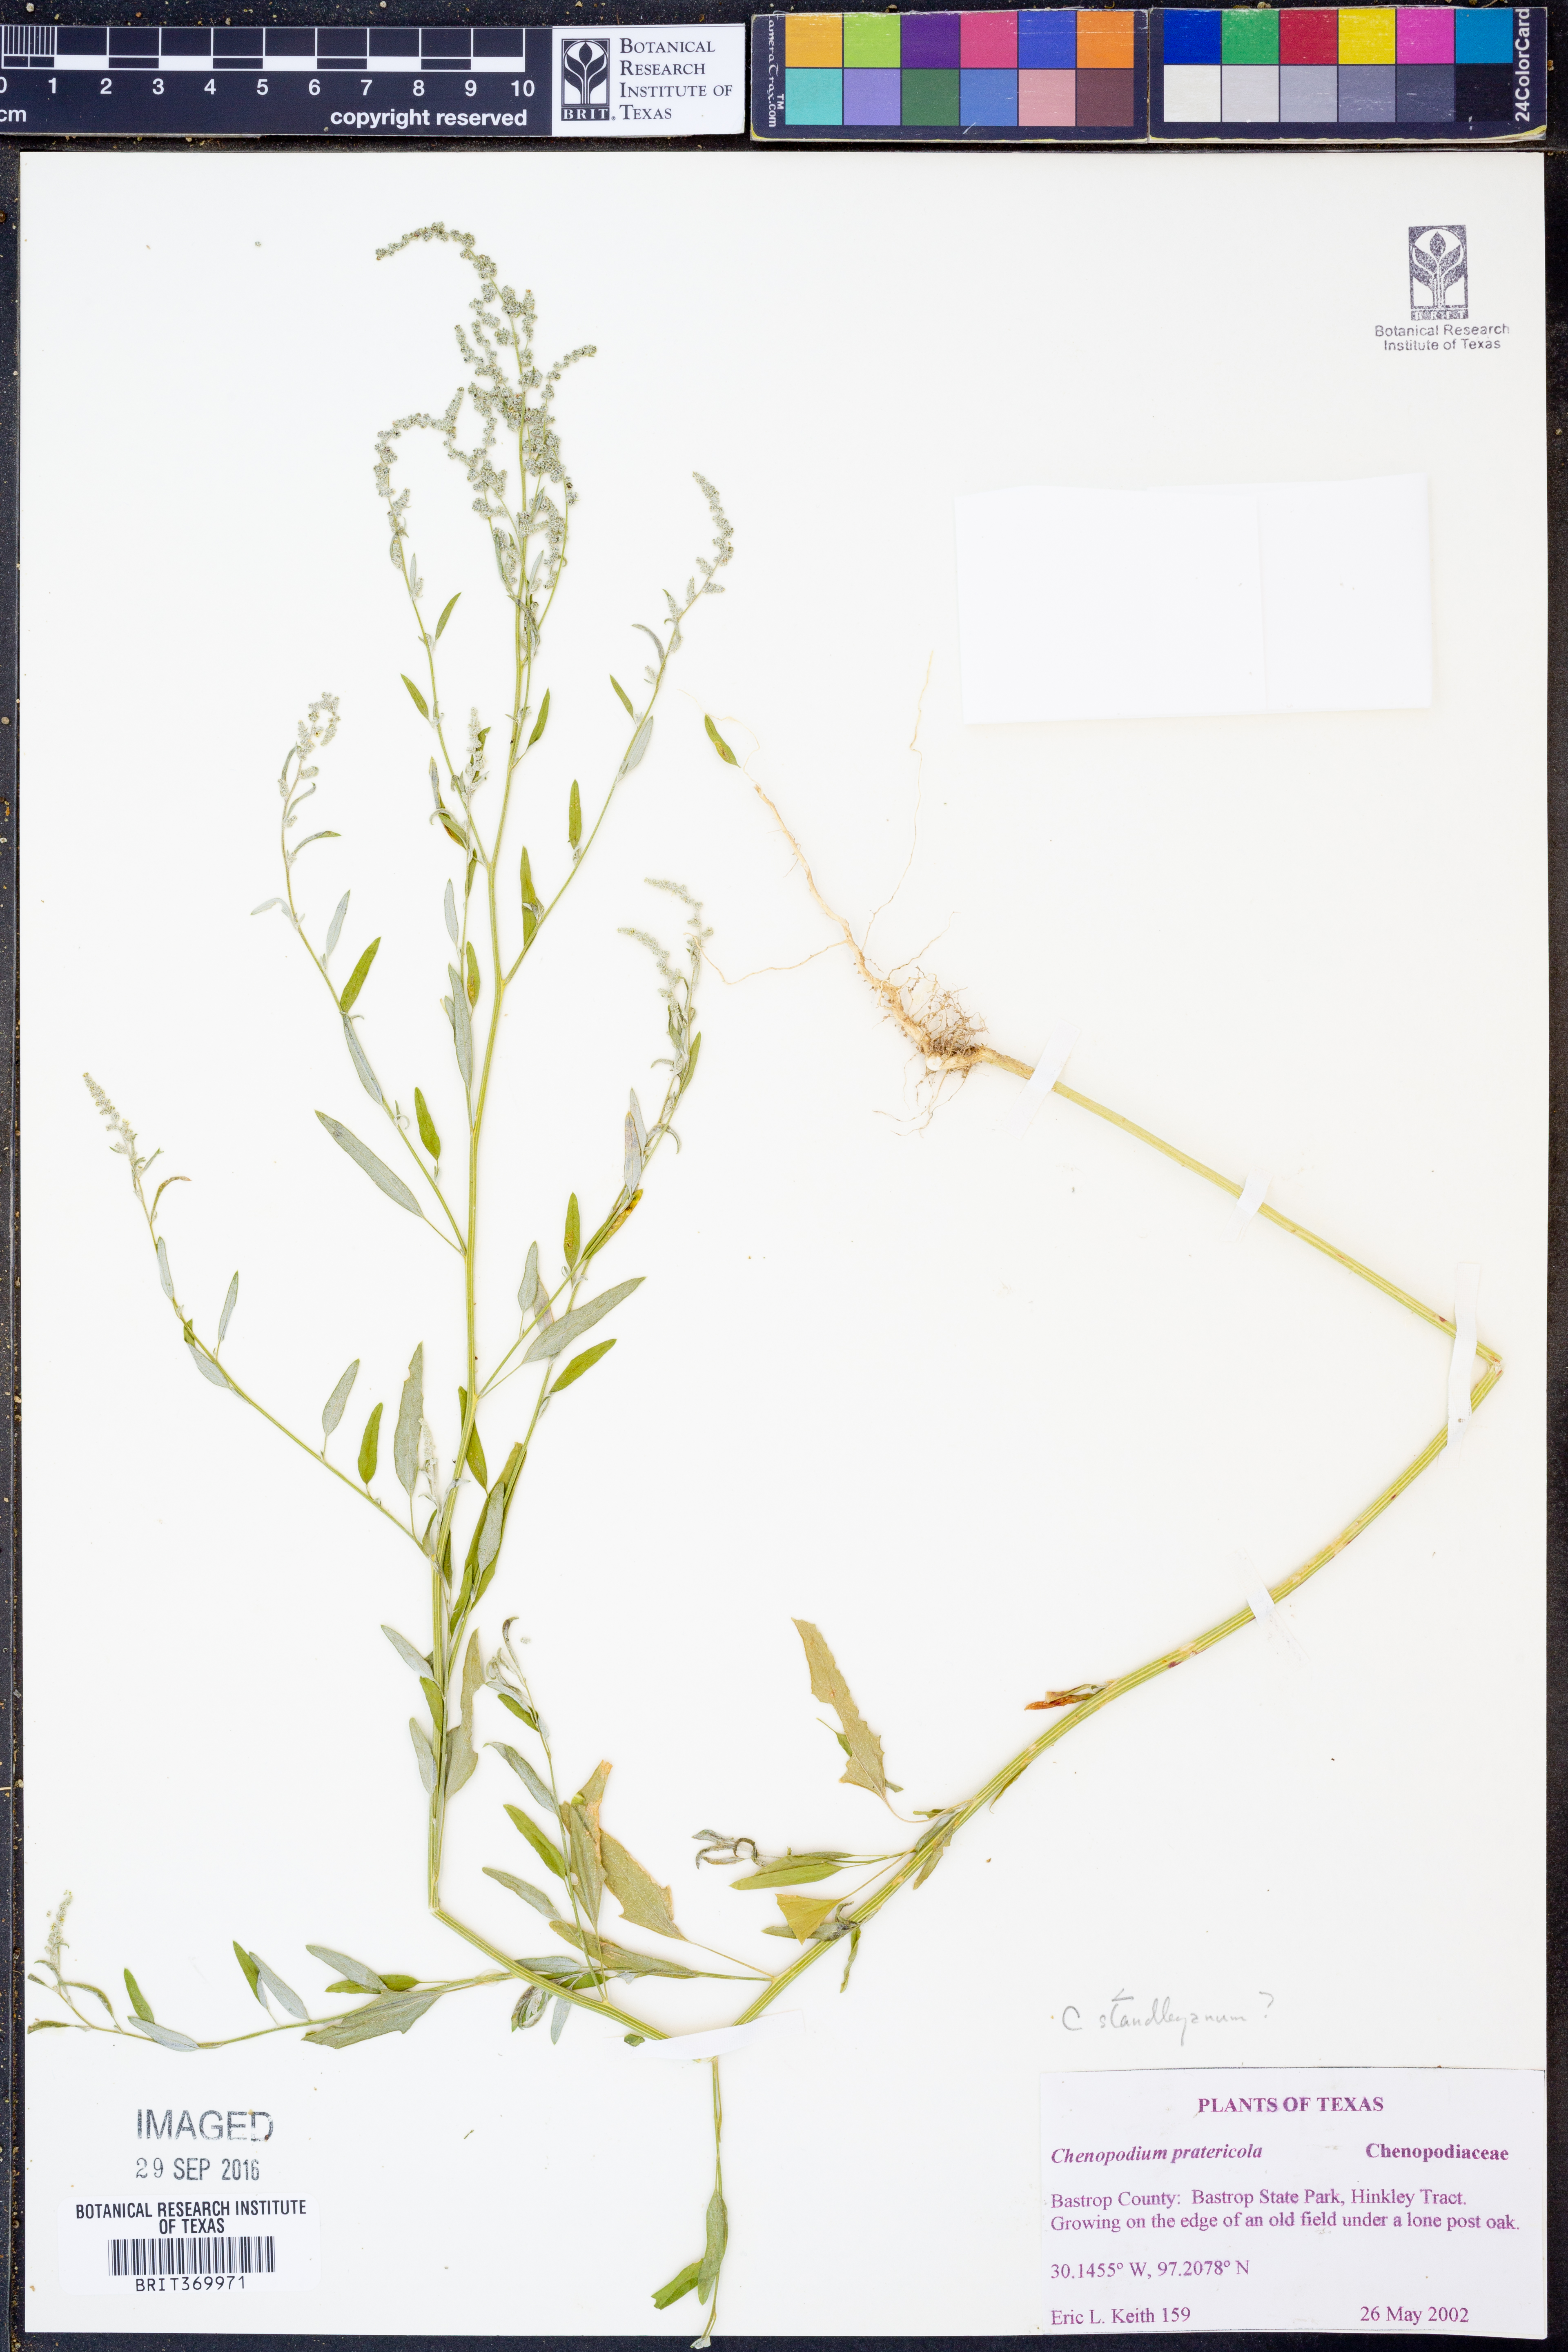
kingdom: Plantae
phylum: Tracheophyta
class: Magnoliopsida
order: Caryophyllales
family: Amaranthaceae
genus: Chenopodiastrum
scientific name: Chenopodiastrum standleyanum
